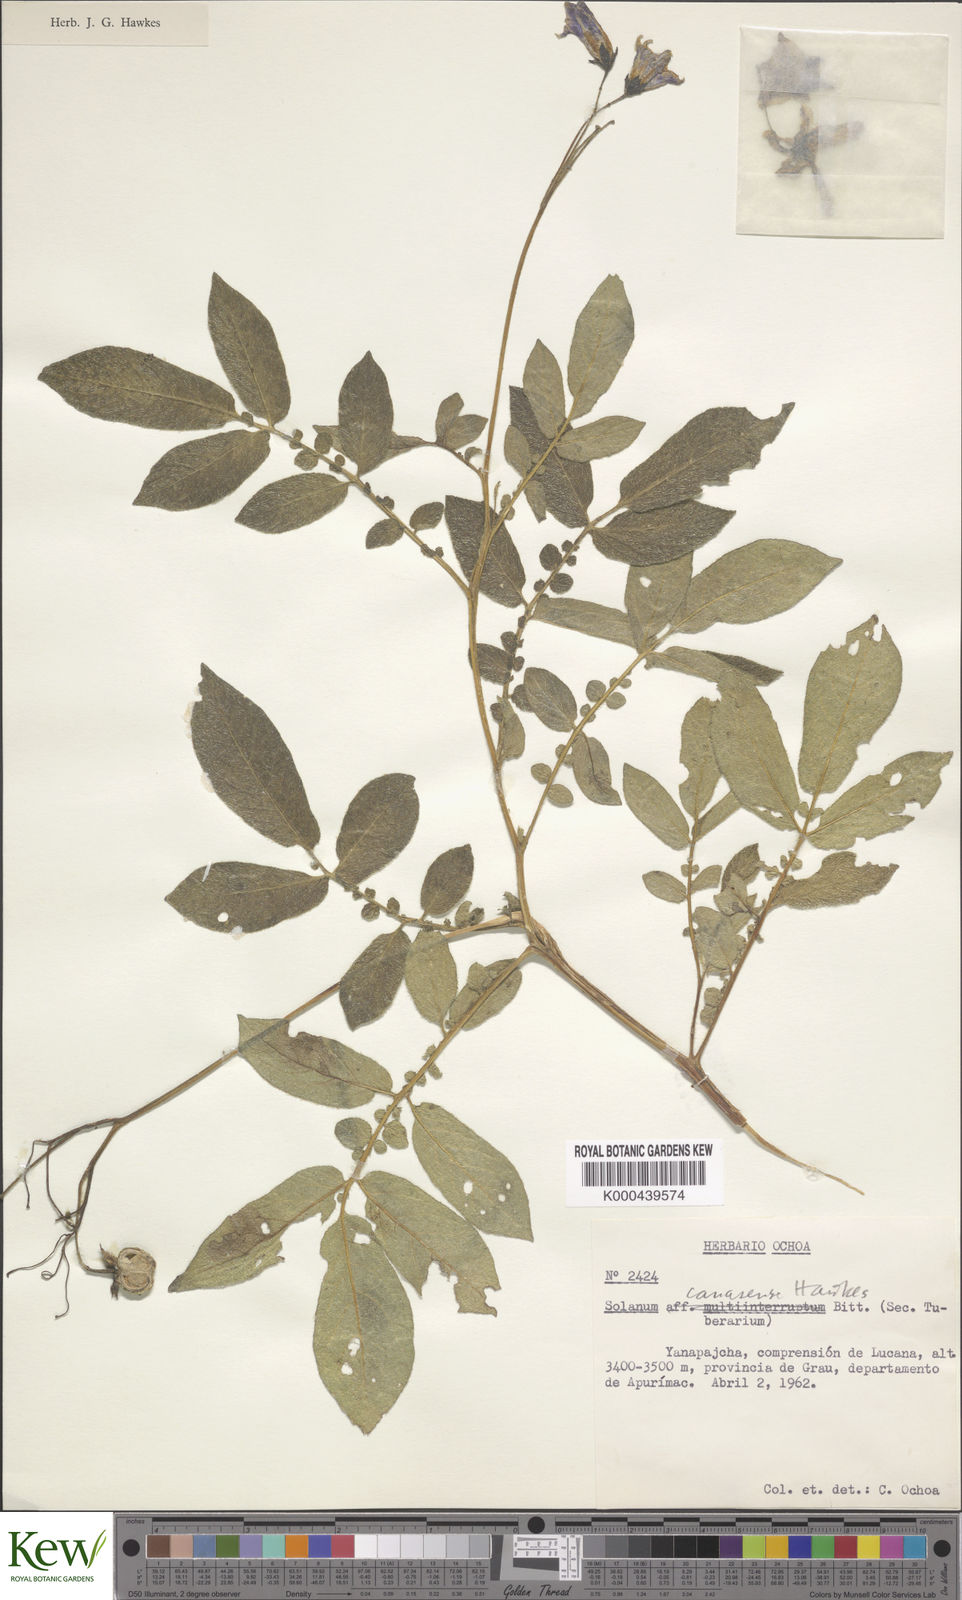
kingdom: Plantae
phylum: Tracheophyta
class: Magnoliopsida
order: Solanales
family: Solanaceae
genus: Solanum
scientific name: Solanum candolleanum
